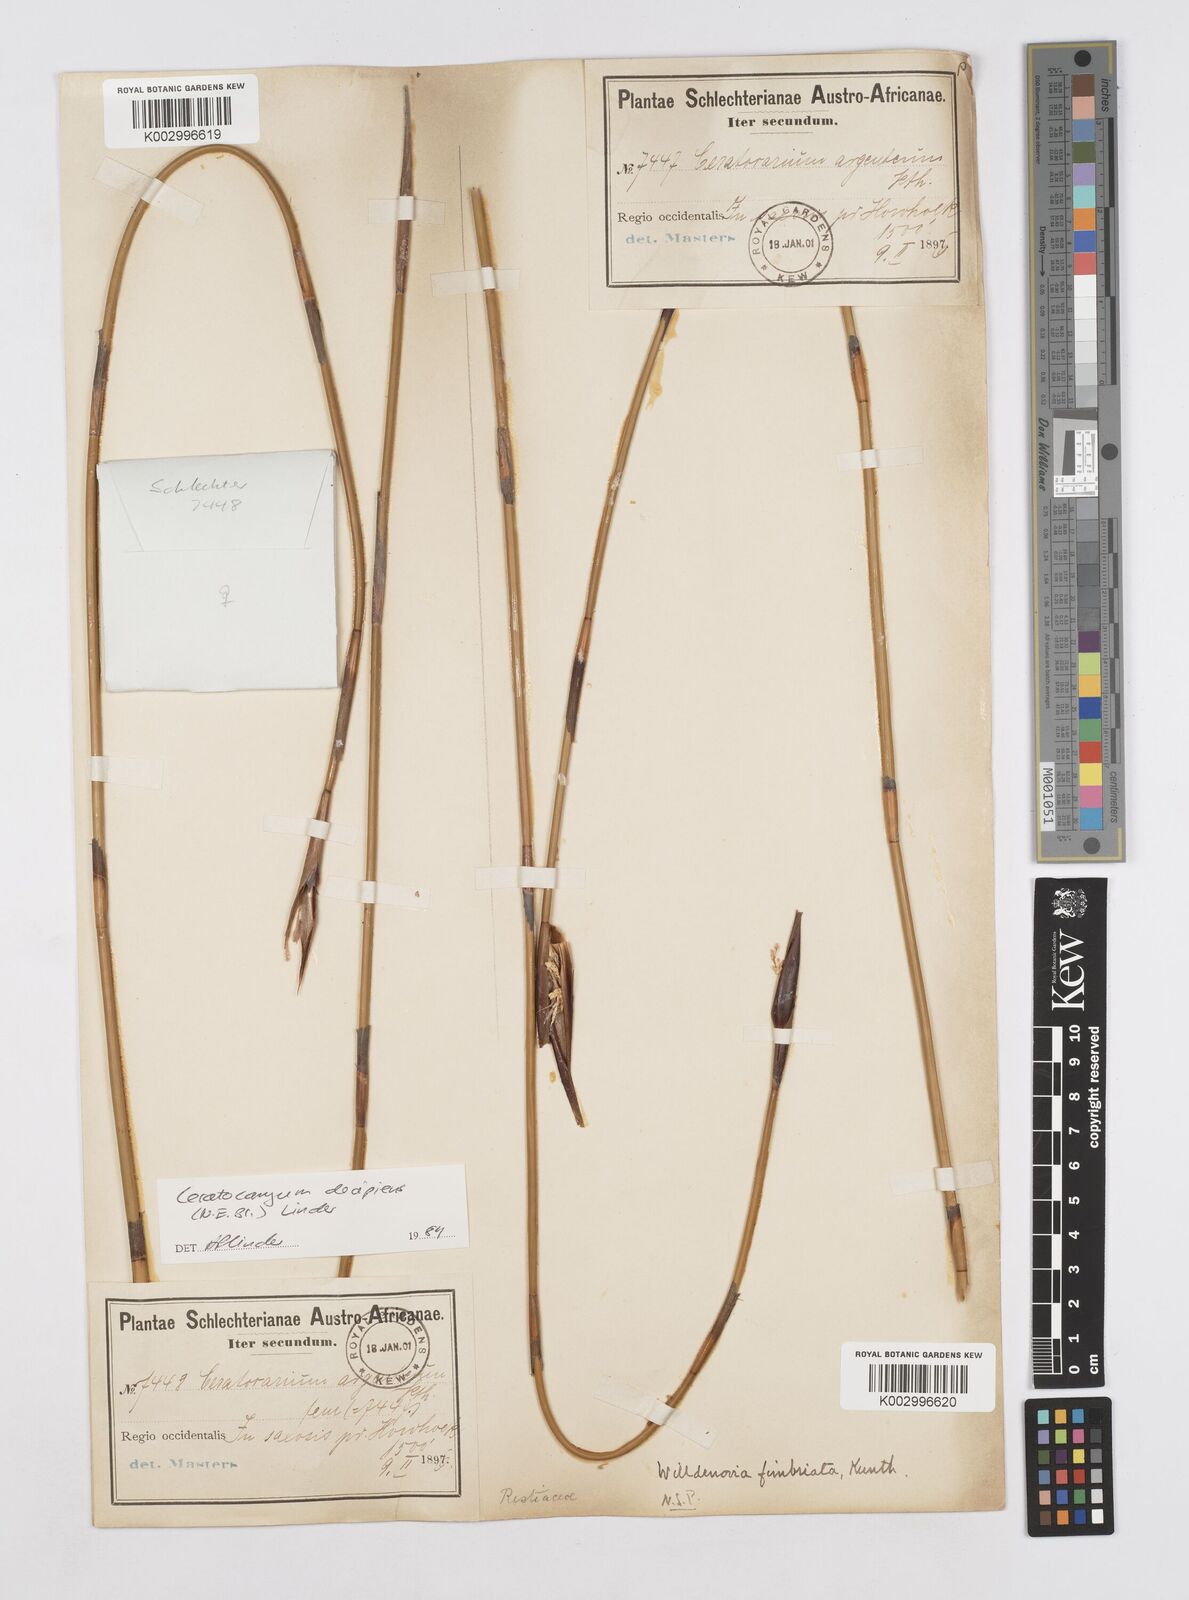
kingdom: Plantae
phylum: Tracheophyta
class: Liliopsida
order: Poales
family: Restionaceae
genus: Ceratocaryum
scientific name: Ceratocaryum decipiens
